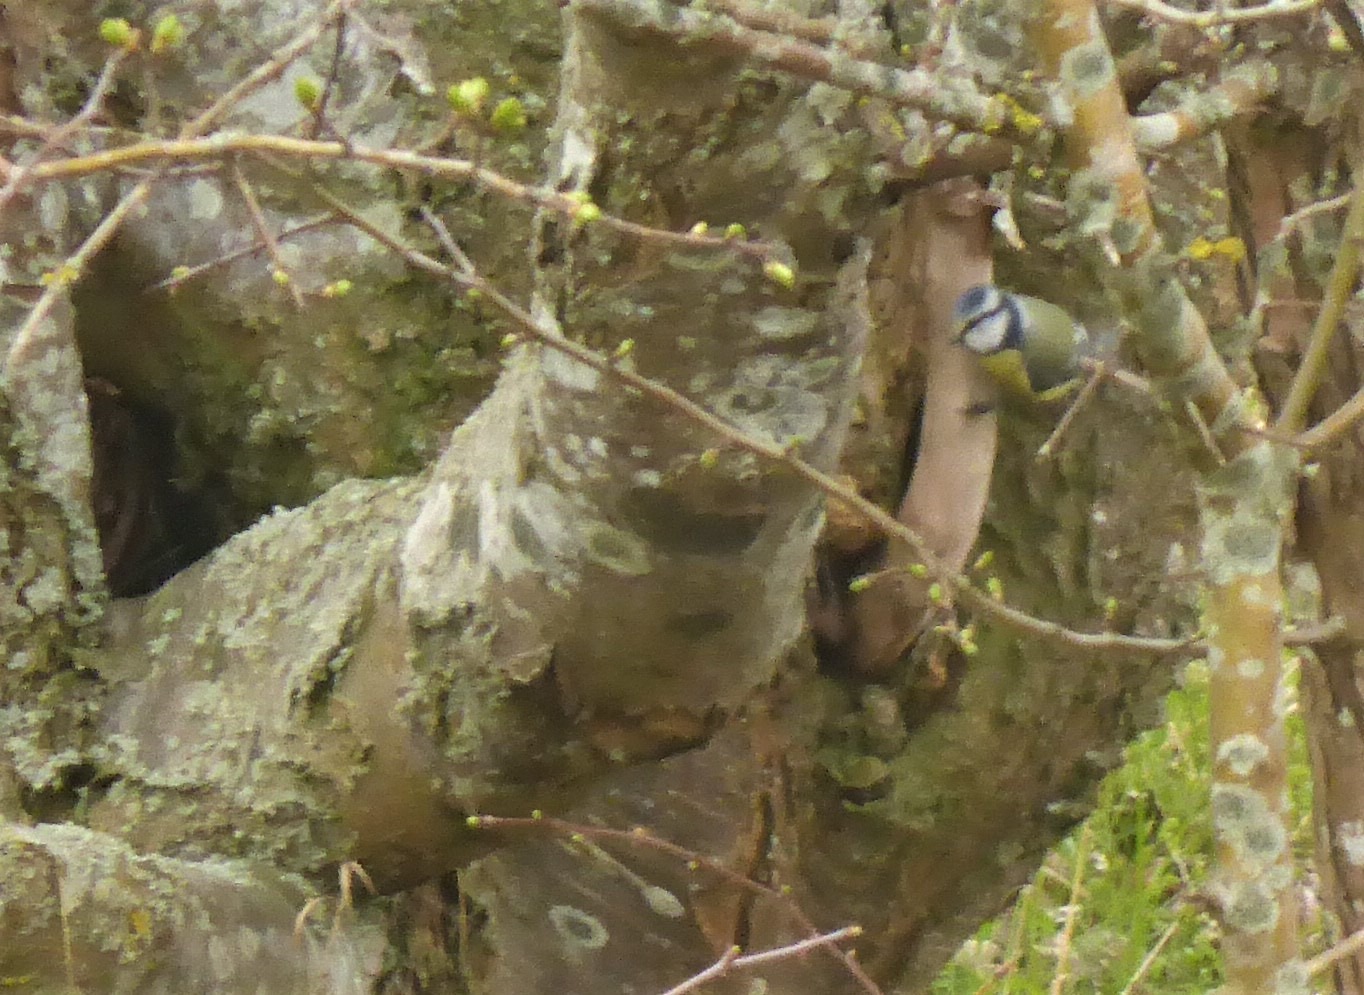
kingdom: Animalia
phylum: Chordata
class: Aves
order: Passeriformes
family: Paridae
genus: Cyanistes
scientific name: Cyanistes caeruleus
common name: Blåmejse
